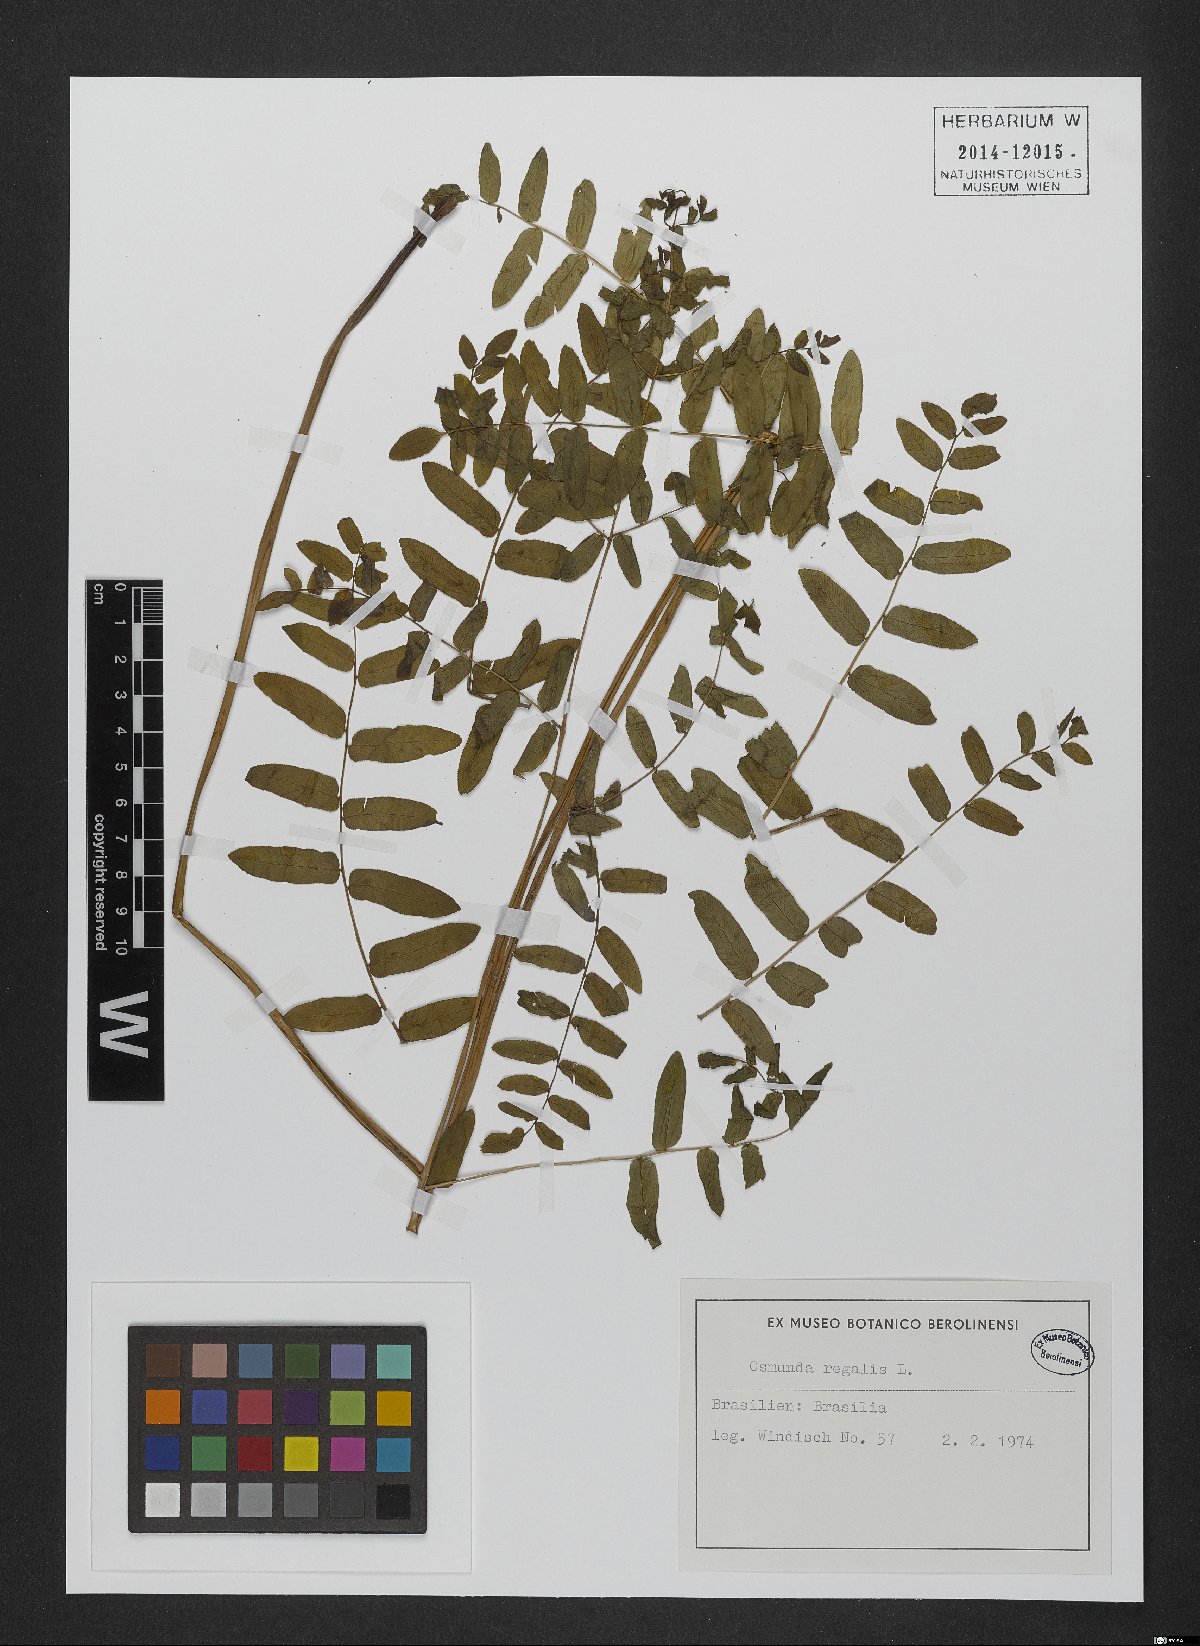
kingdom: Plantae
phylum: Tracheophyta
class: Polypodiopsida
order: Osmundales
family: Osmundaceae
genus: Osmunda
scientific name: Osmunda regalis
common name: Royal fern
